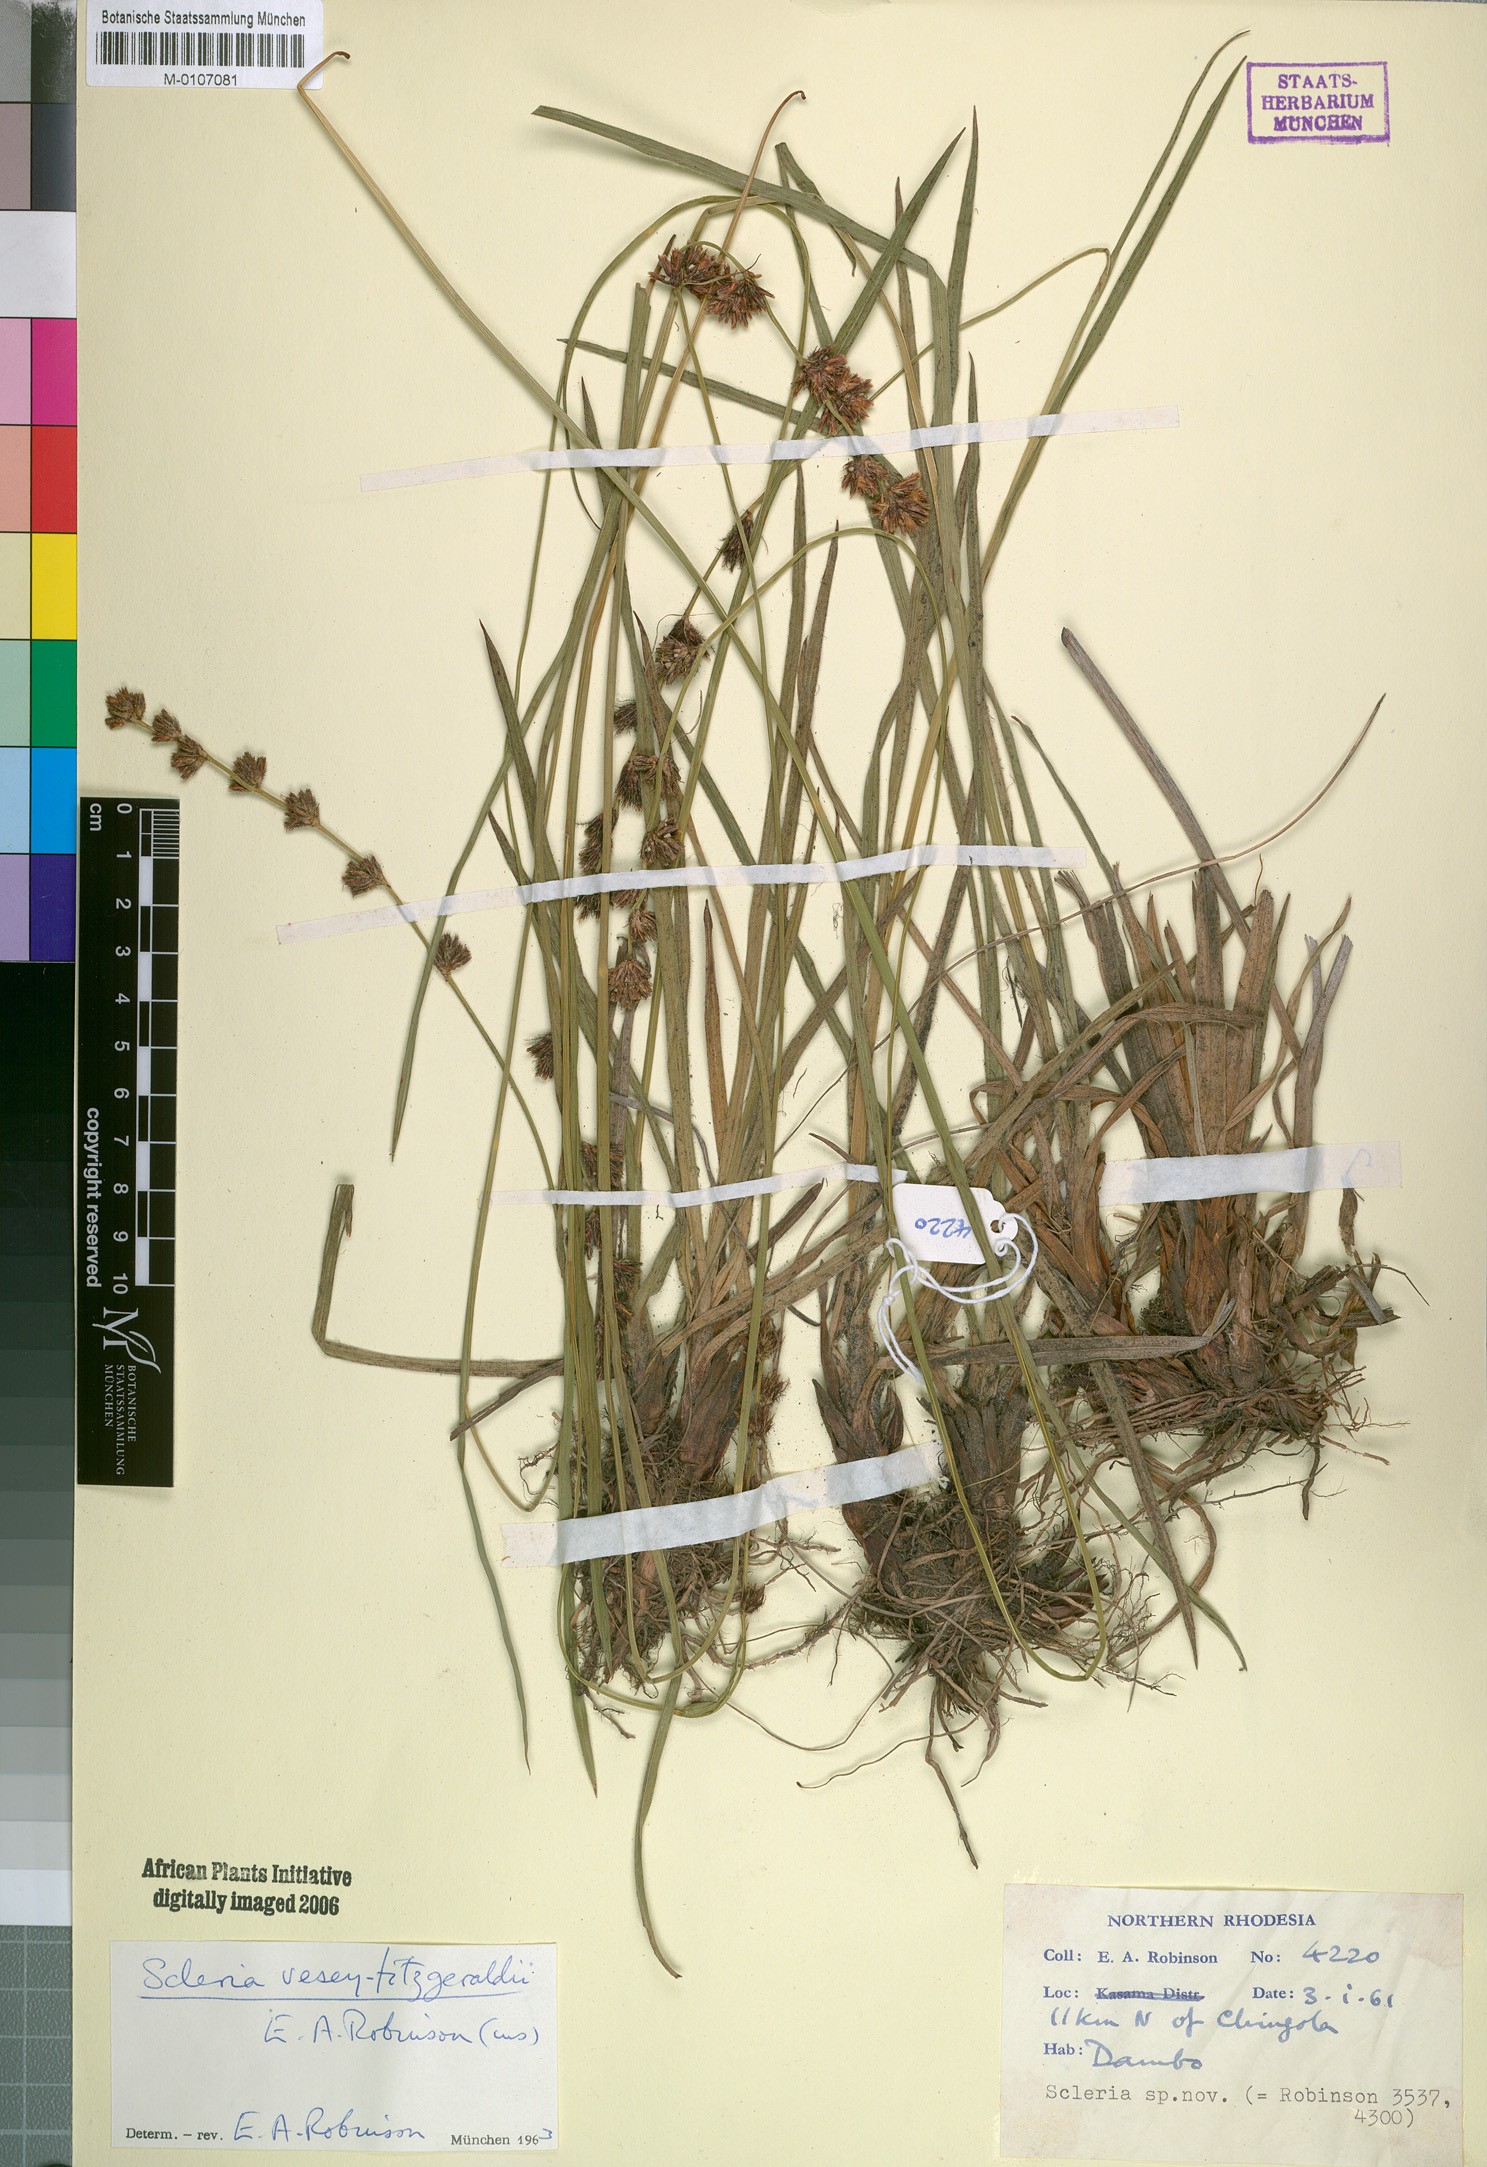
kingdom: Plantae
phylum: Tracheophyta
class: Liliopsida
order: Poales
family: Cyperaceae
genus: Scleria
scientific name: Scleria veseyfitzgeraldii
